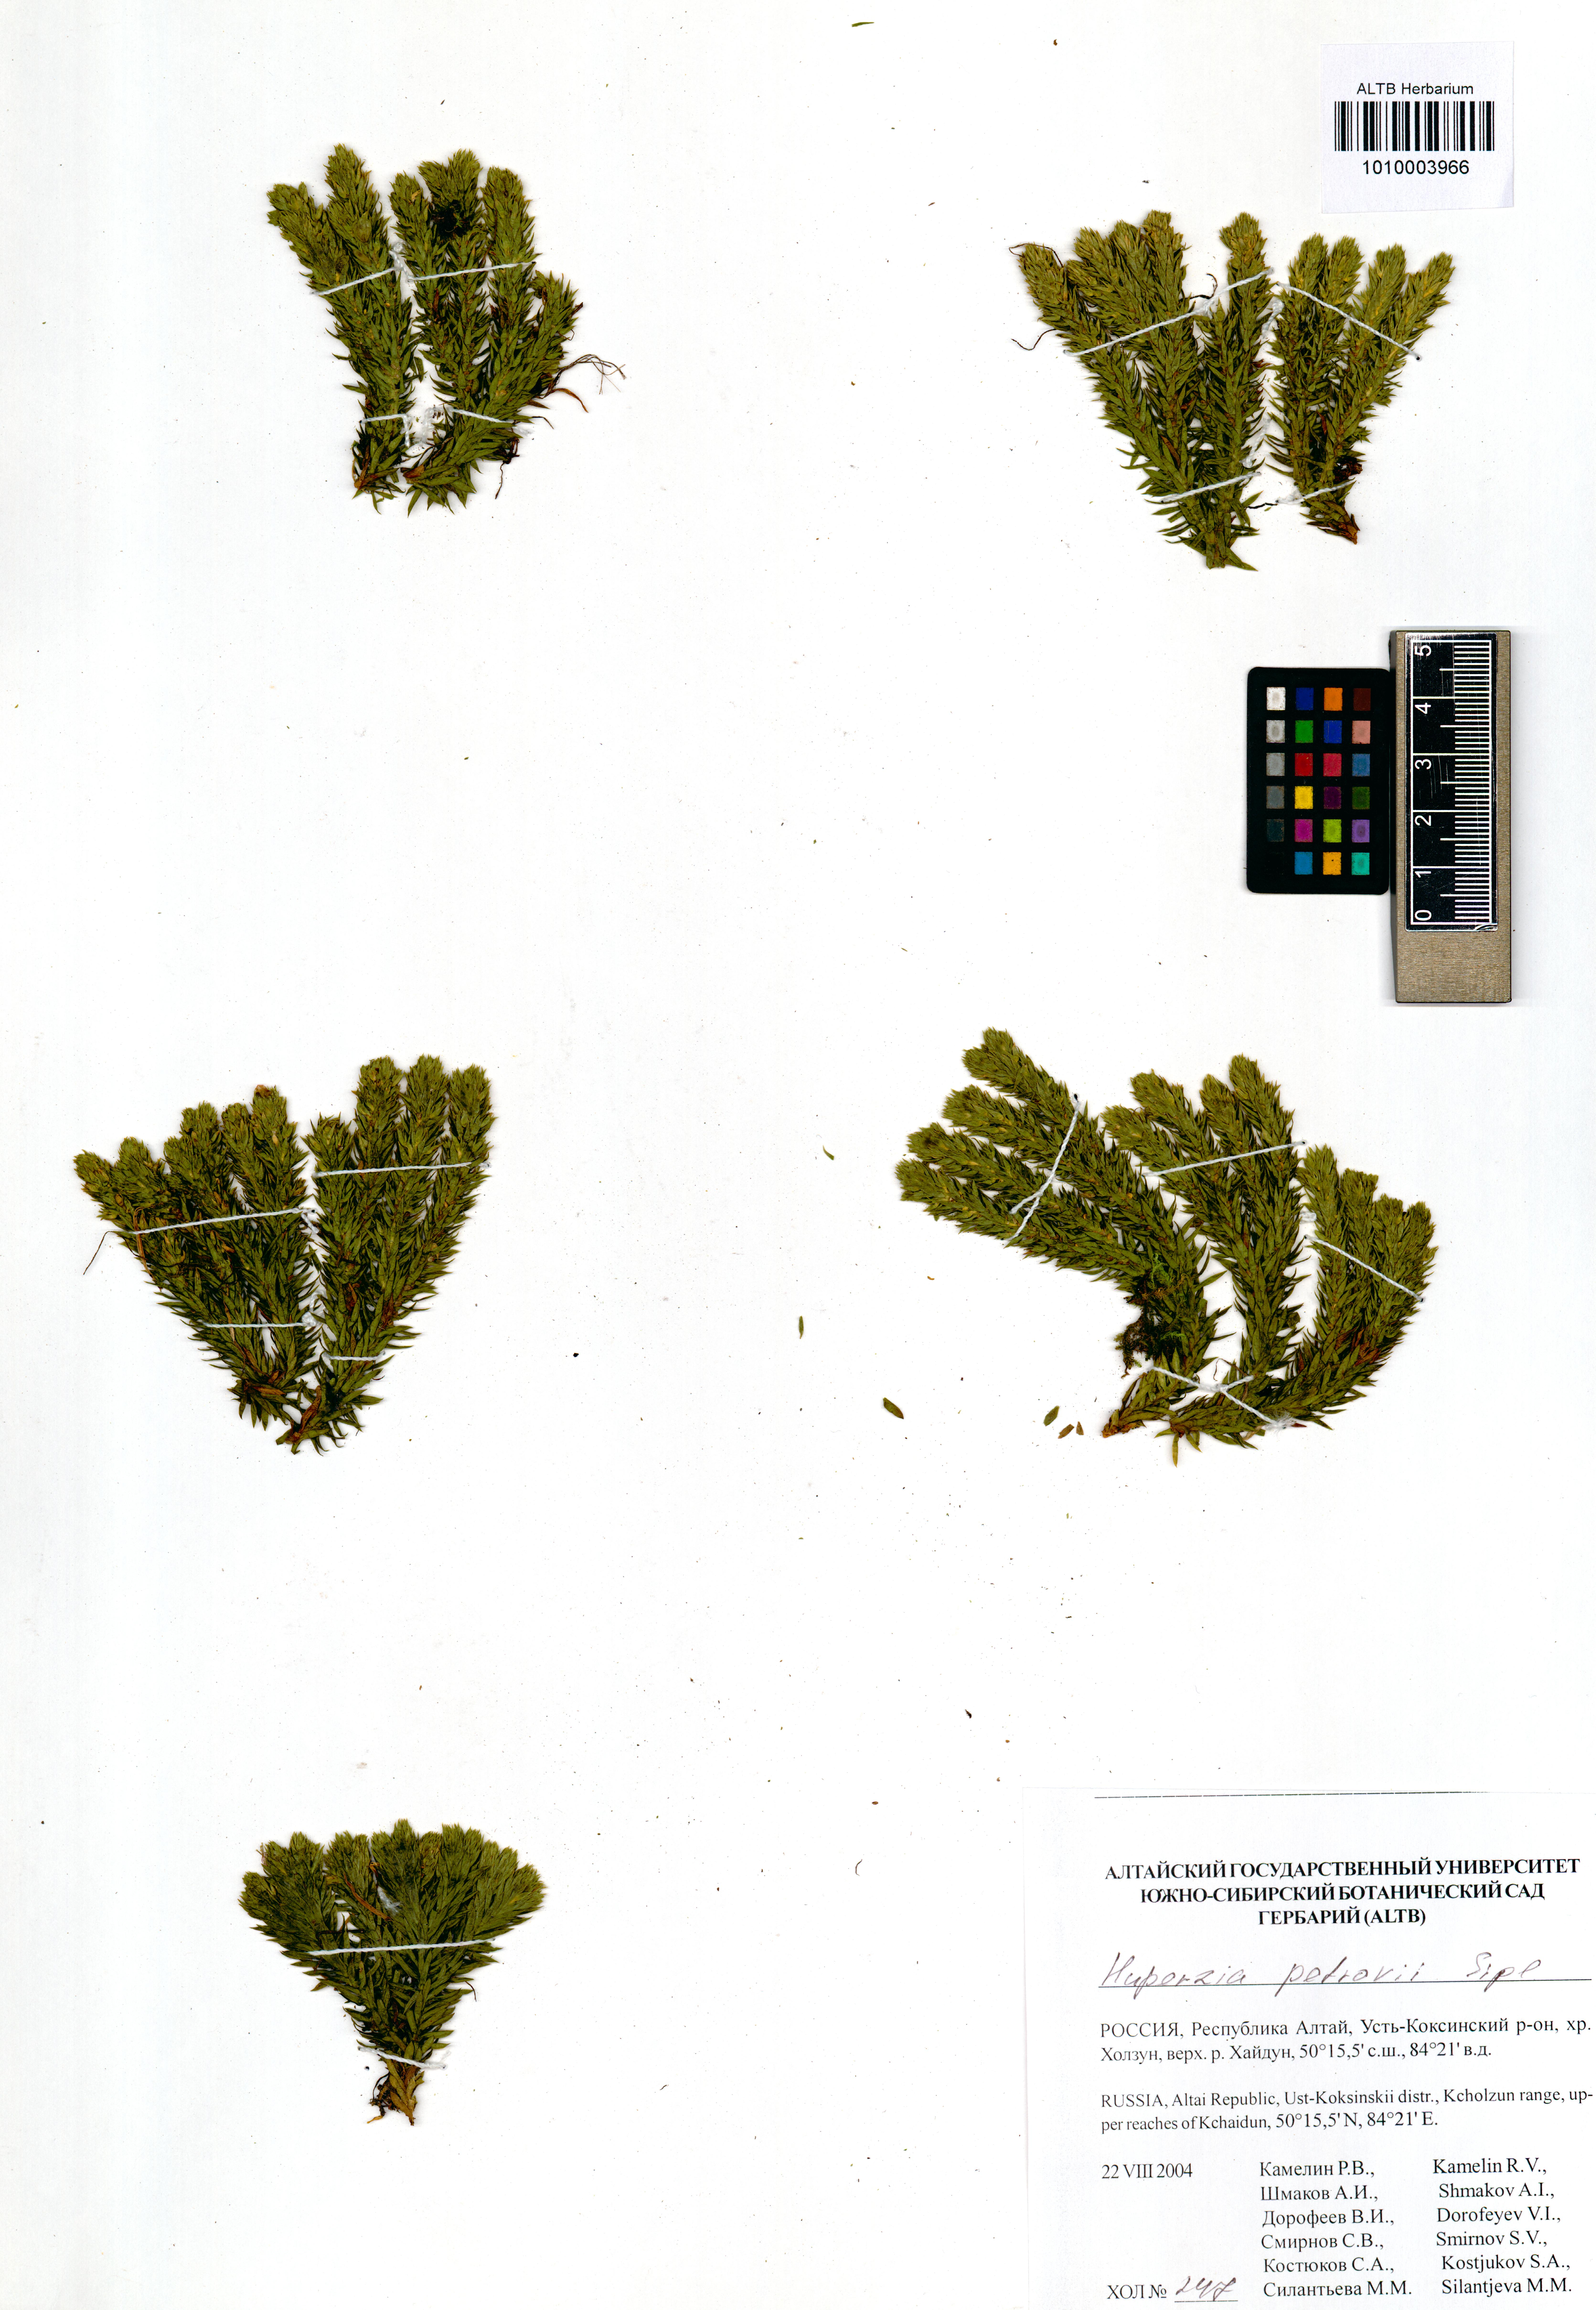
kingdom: Plantae
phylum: Tracheophyta
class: Lycopodiopsida
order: Lycopodiales
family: Lycopodiaceae
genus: Huperzia
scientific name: Huperzia selago
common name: Northern firmoss
